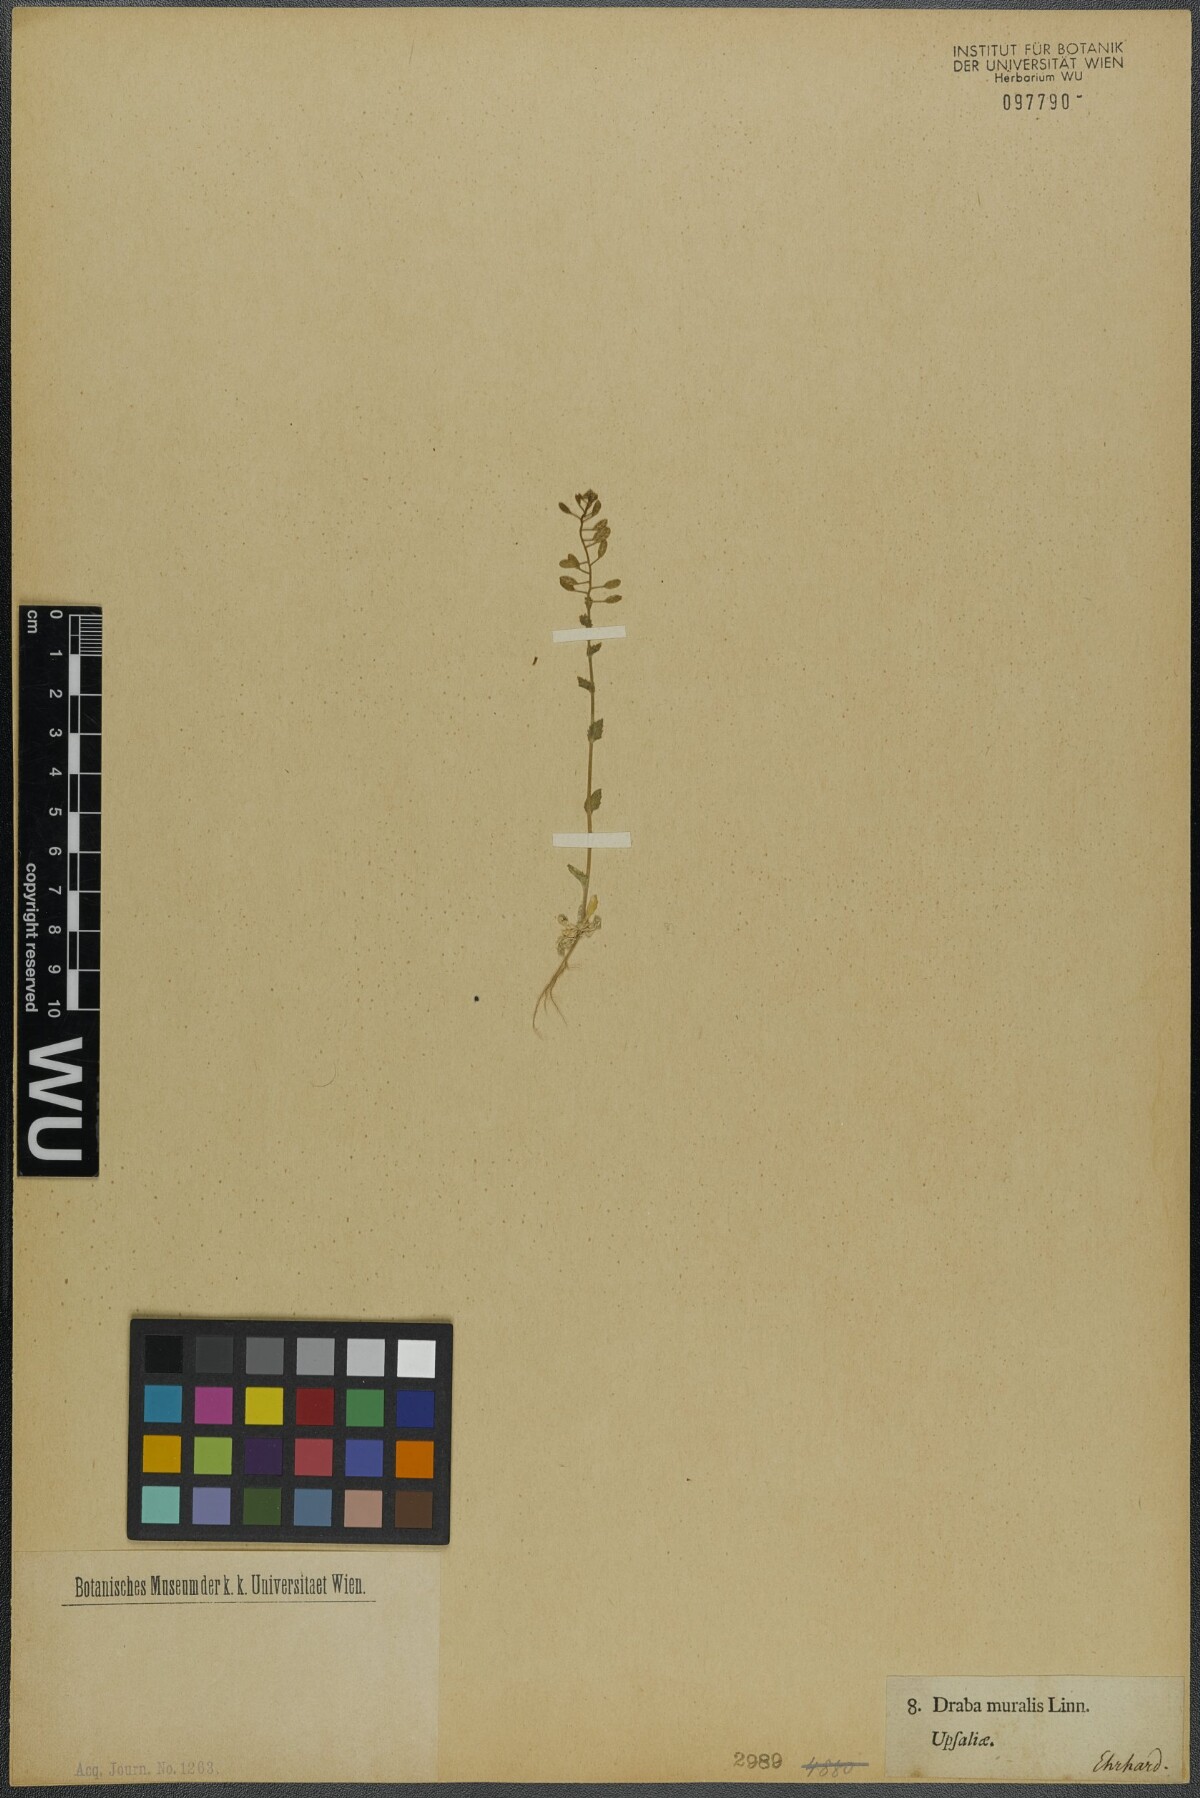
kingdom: Plantae
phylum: Tracheophyta
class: Magnoliopsida
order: Brassicales
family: Brassicaceae
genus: Drabella
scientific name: Drabella muralis
